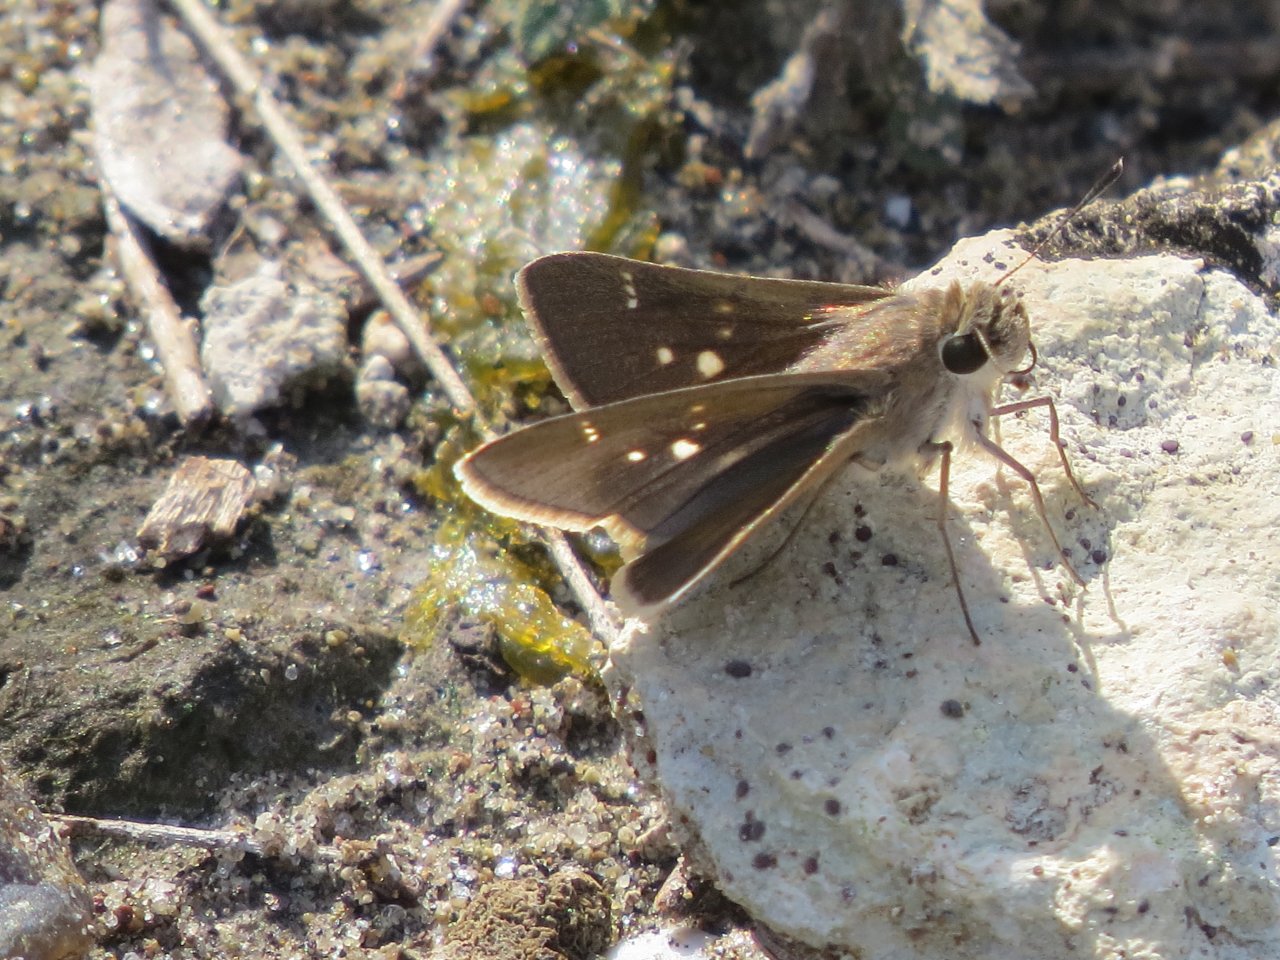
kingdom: Animalia
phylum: Arthropoda
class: Insecta
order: Lepidoptera
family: Hesperiidae
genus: Lerodea
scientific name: Lerodea eufala
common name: Eufala Skipper
